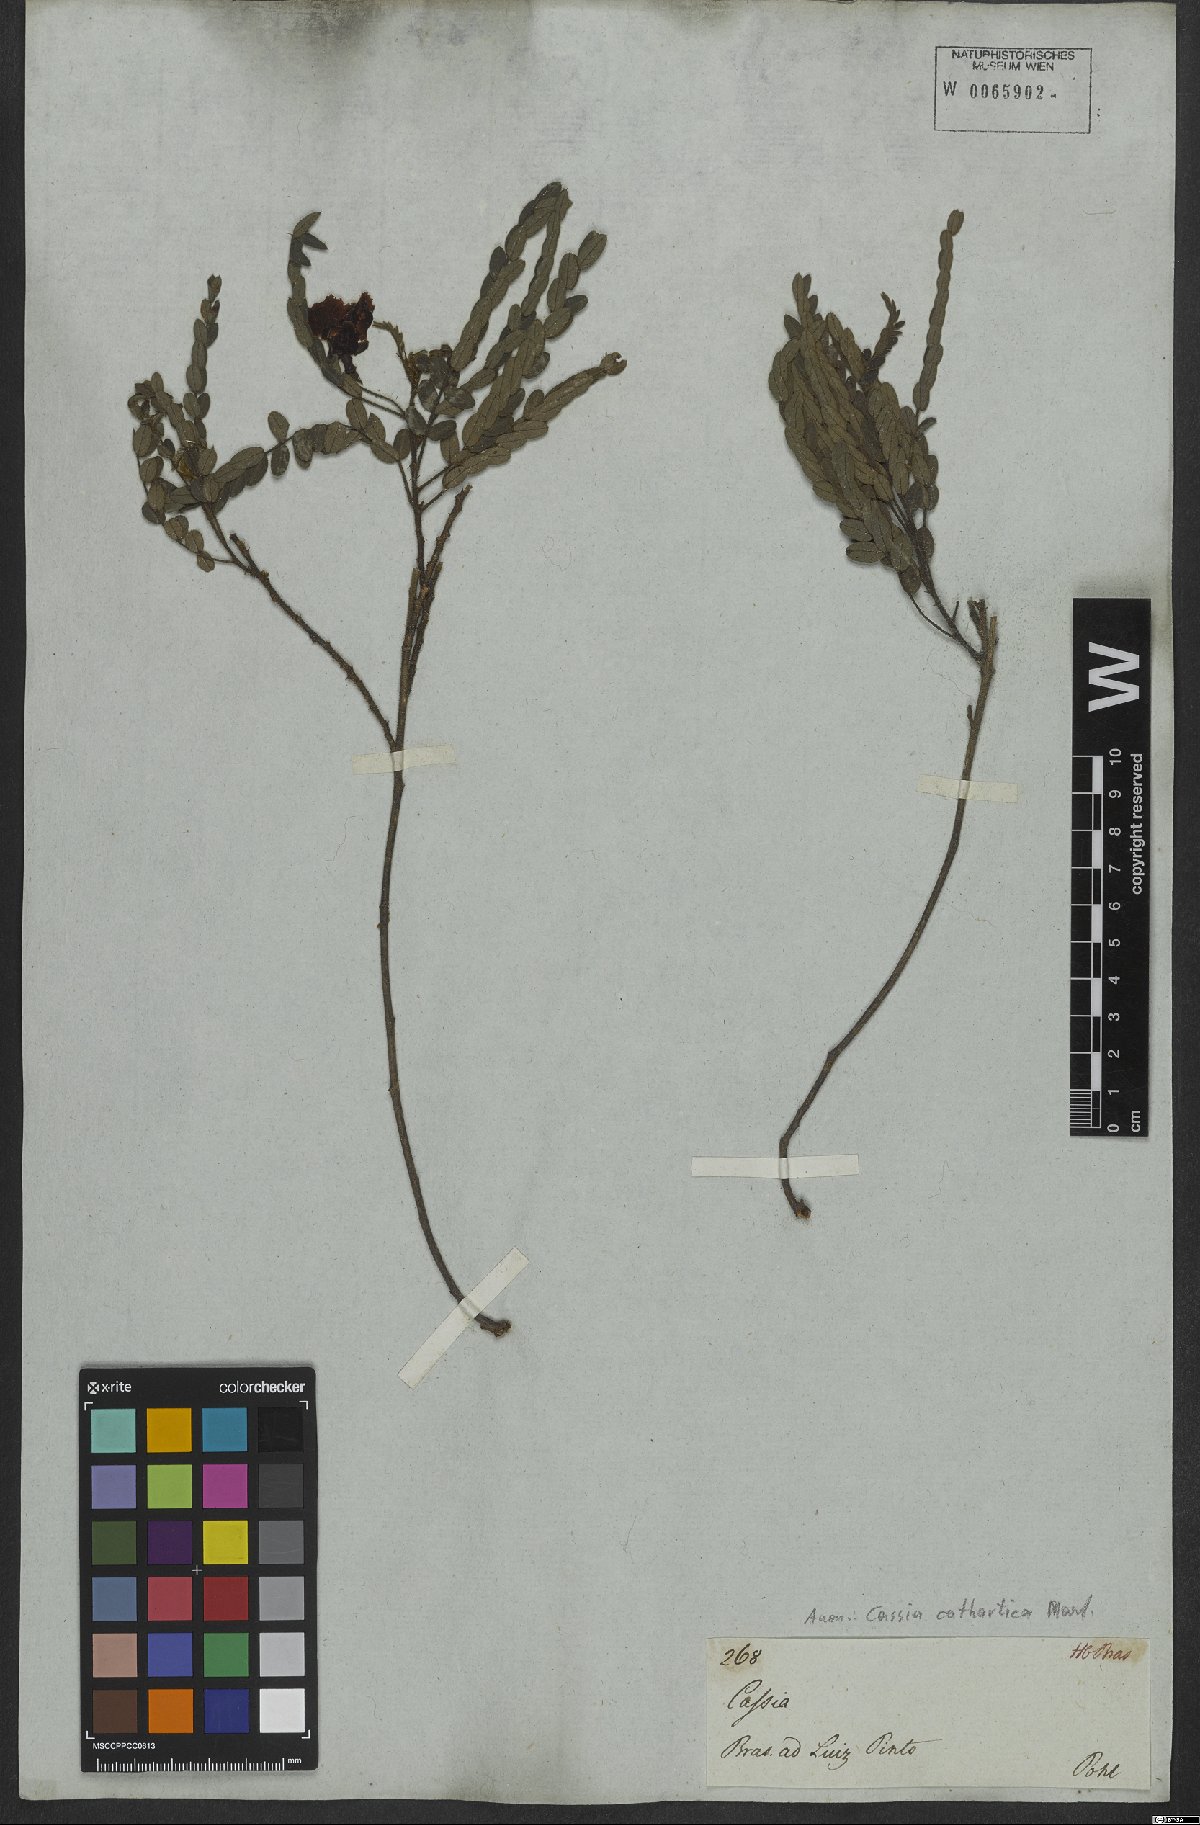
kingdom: Plantae
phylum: Tracheophyta
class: Magnoliopsida
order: Fabales
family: Fabaceae
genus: Chamaecrista
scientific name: Chamaecrista cathartica
